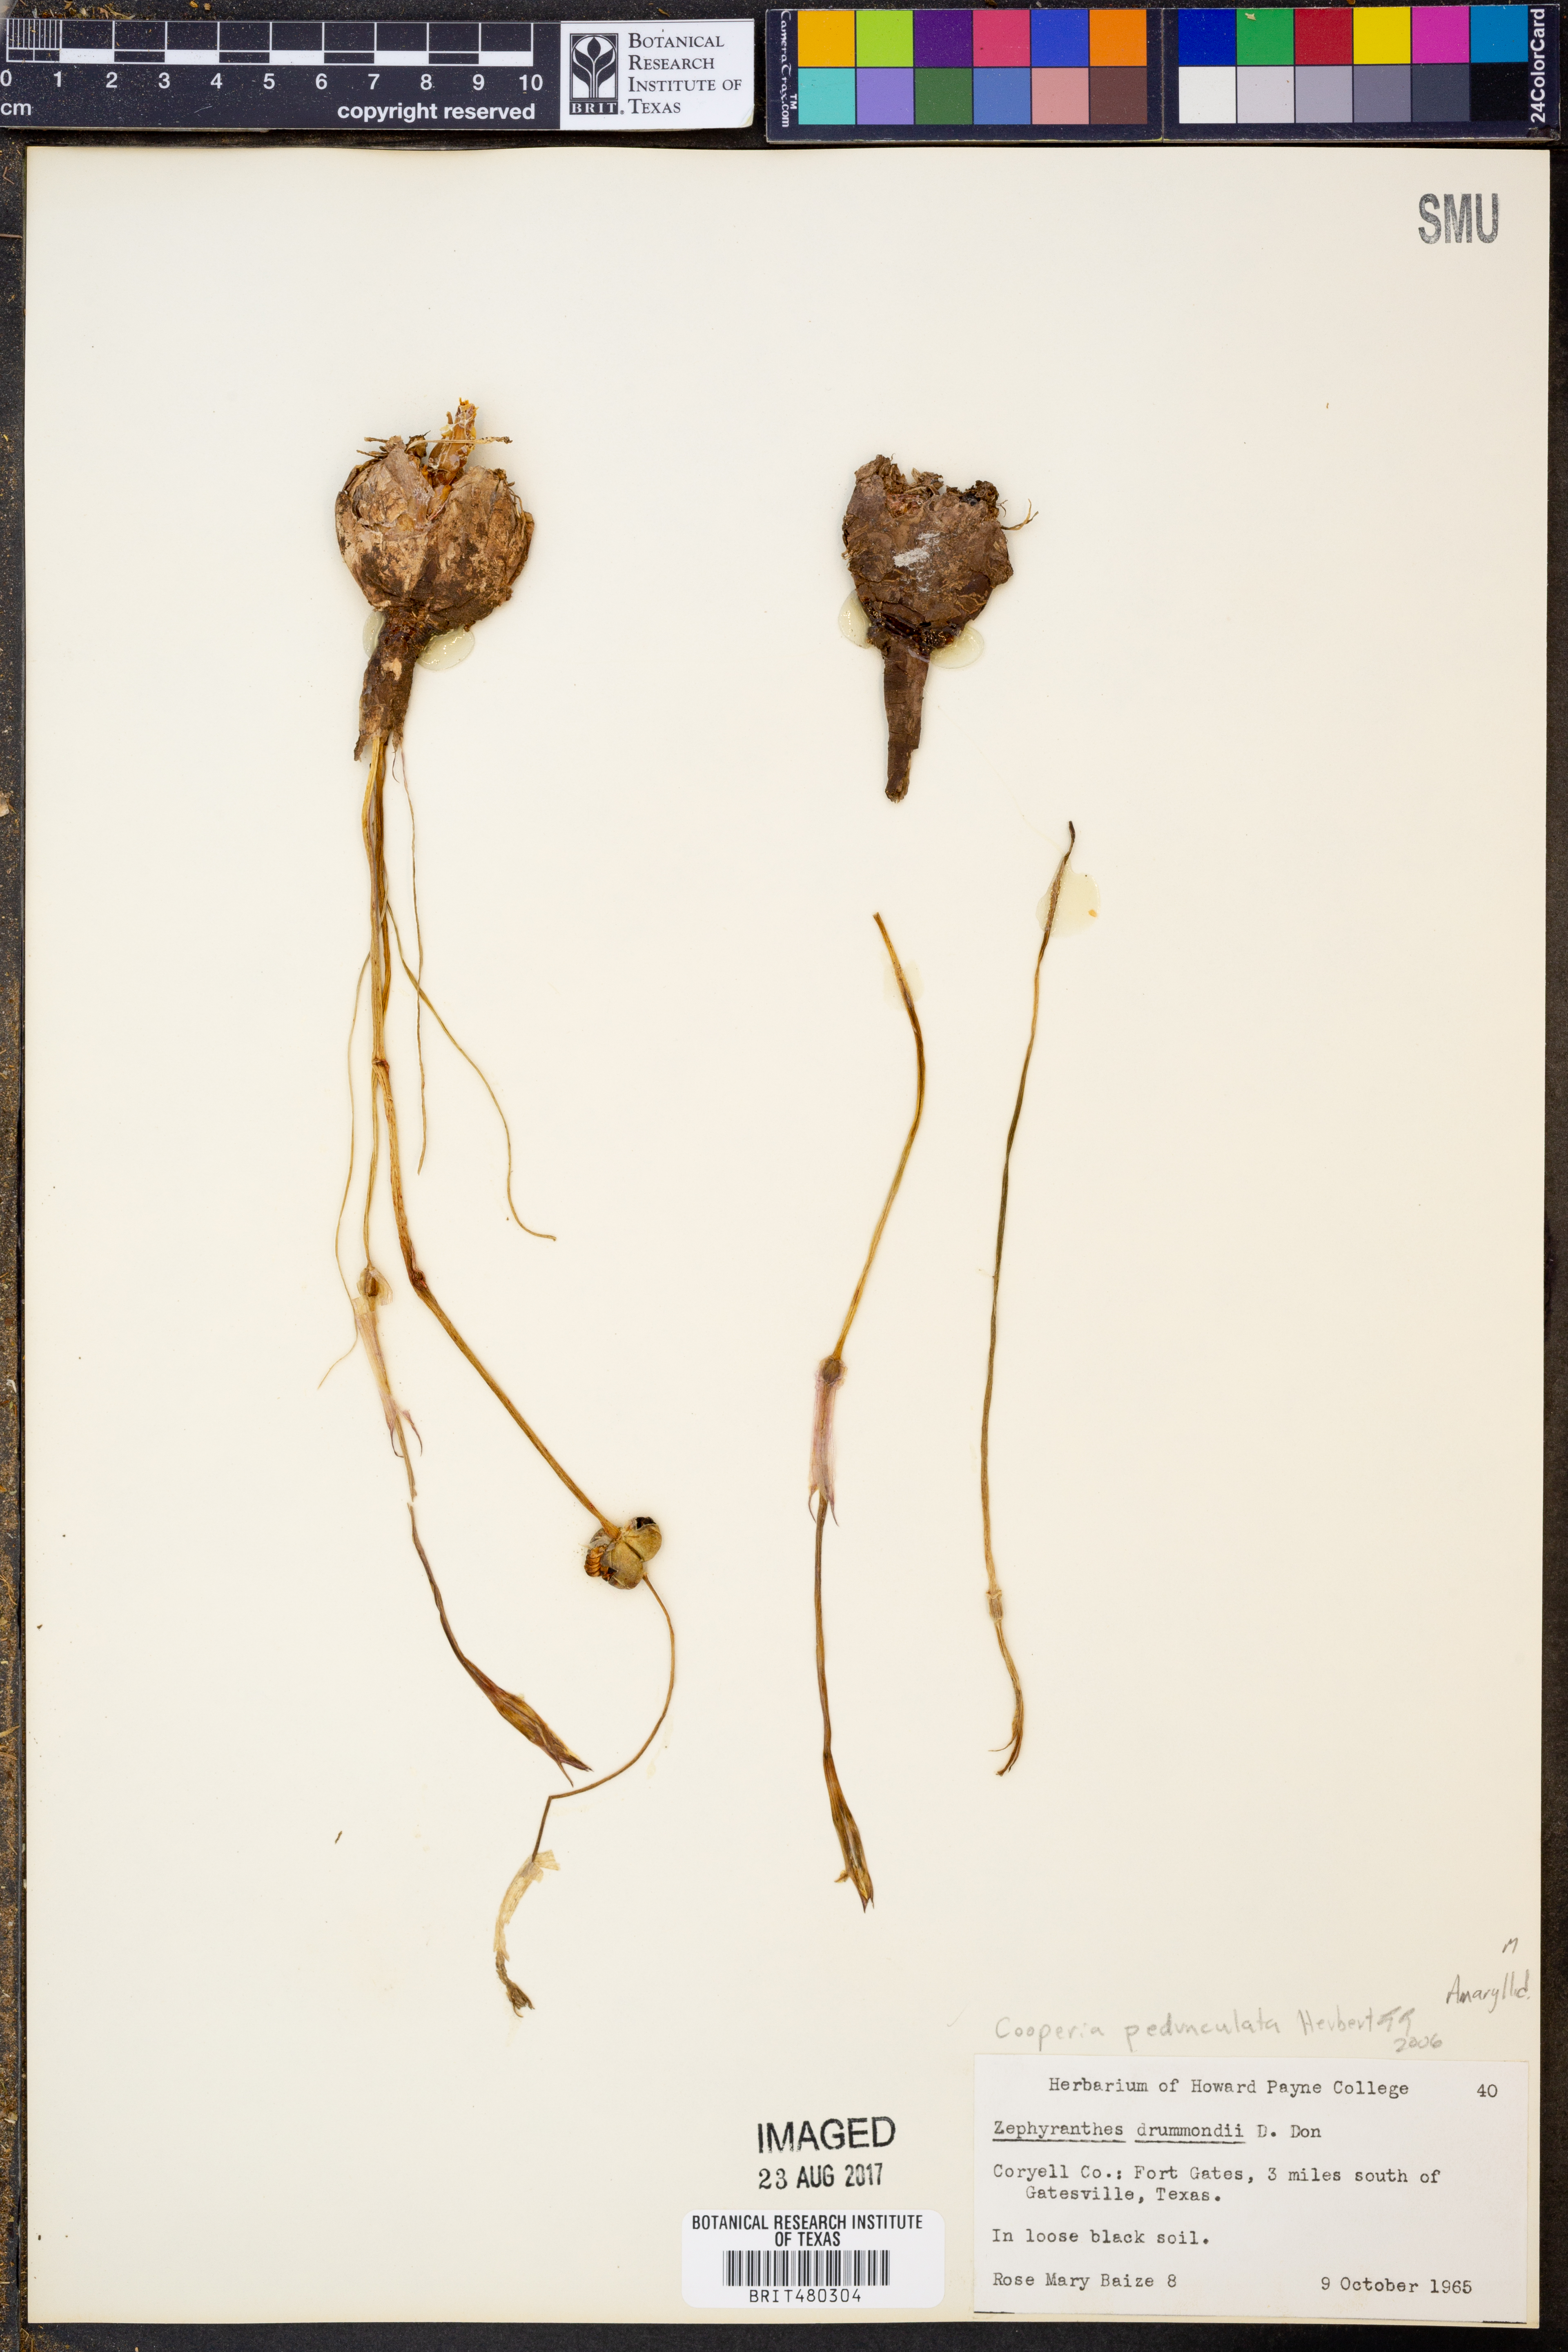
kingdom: Plantae
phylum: Tracheophyta
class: Liliopsida
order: Asparagales
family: Amaryllidaceae
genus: Zephyranthes
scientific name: Zephyranthes drummondii
